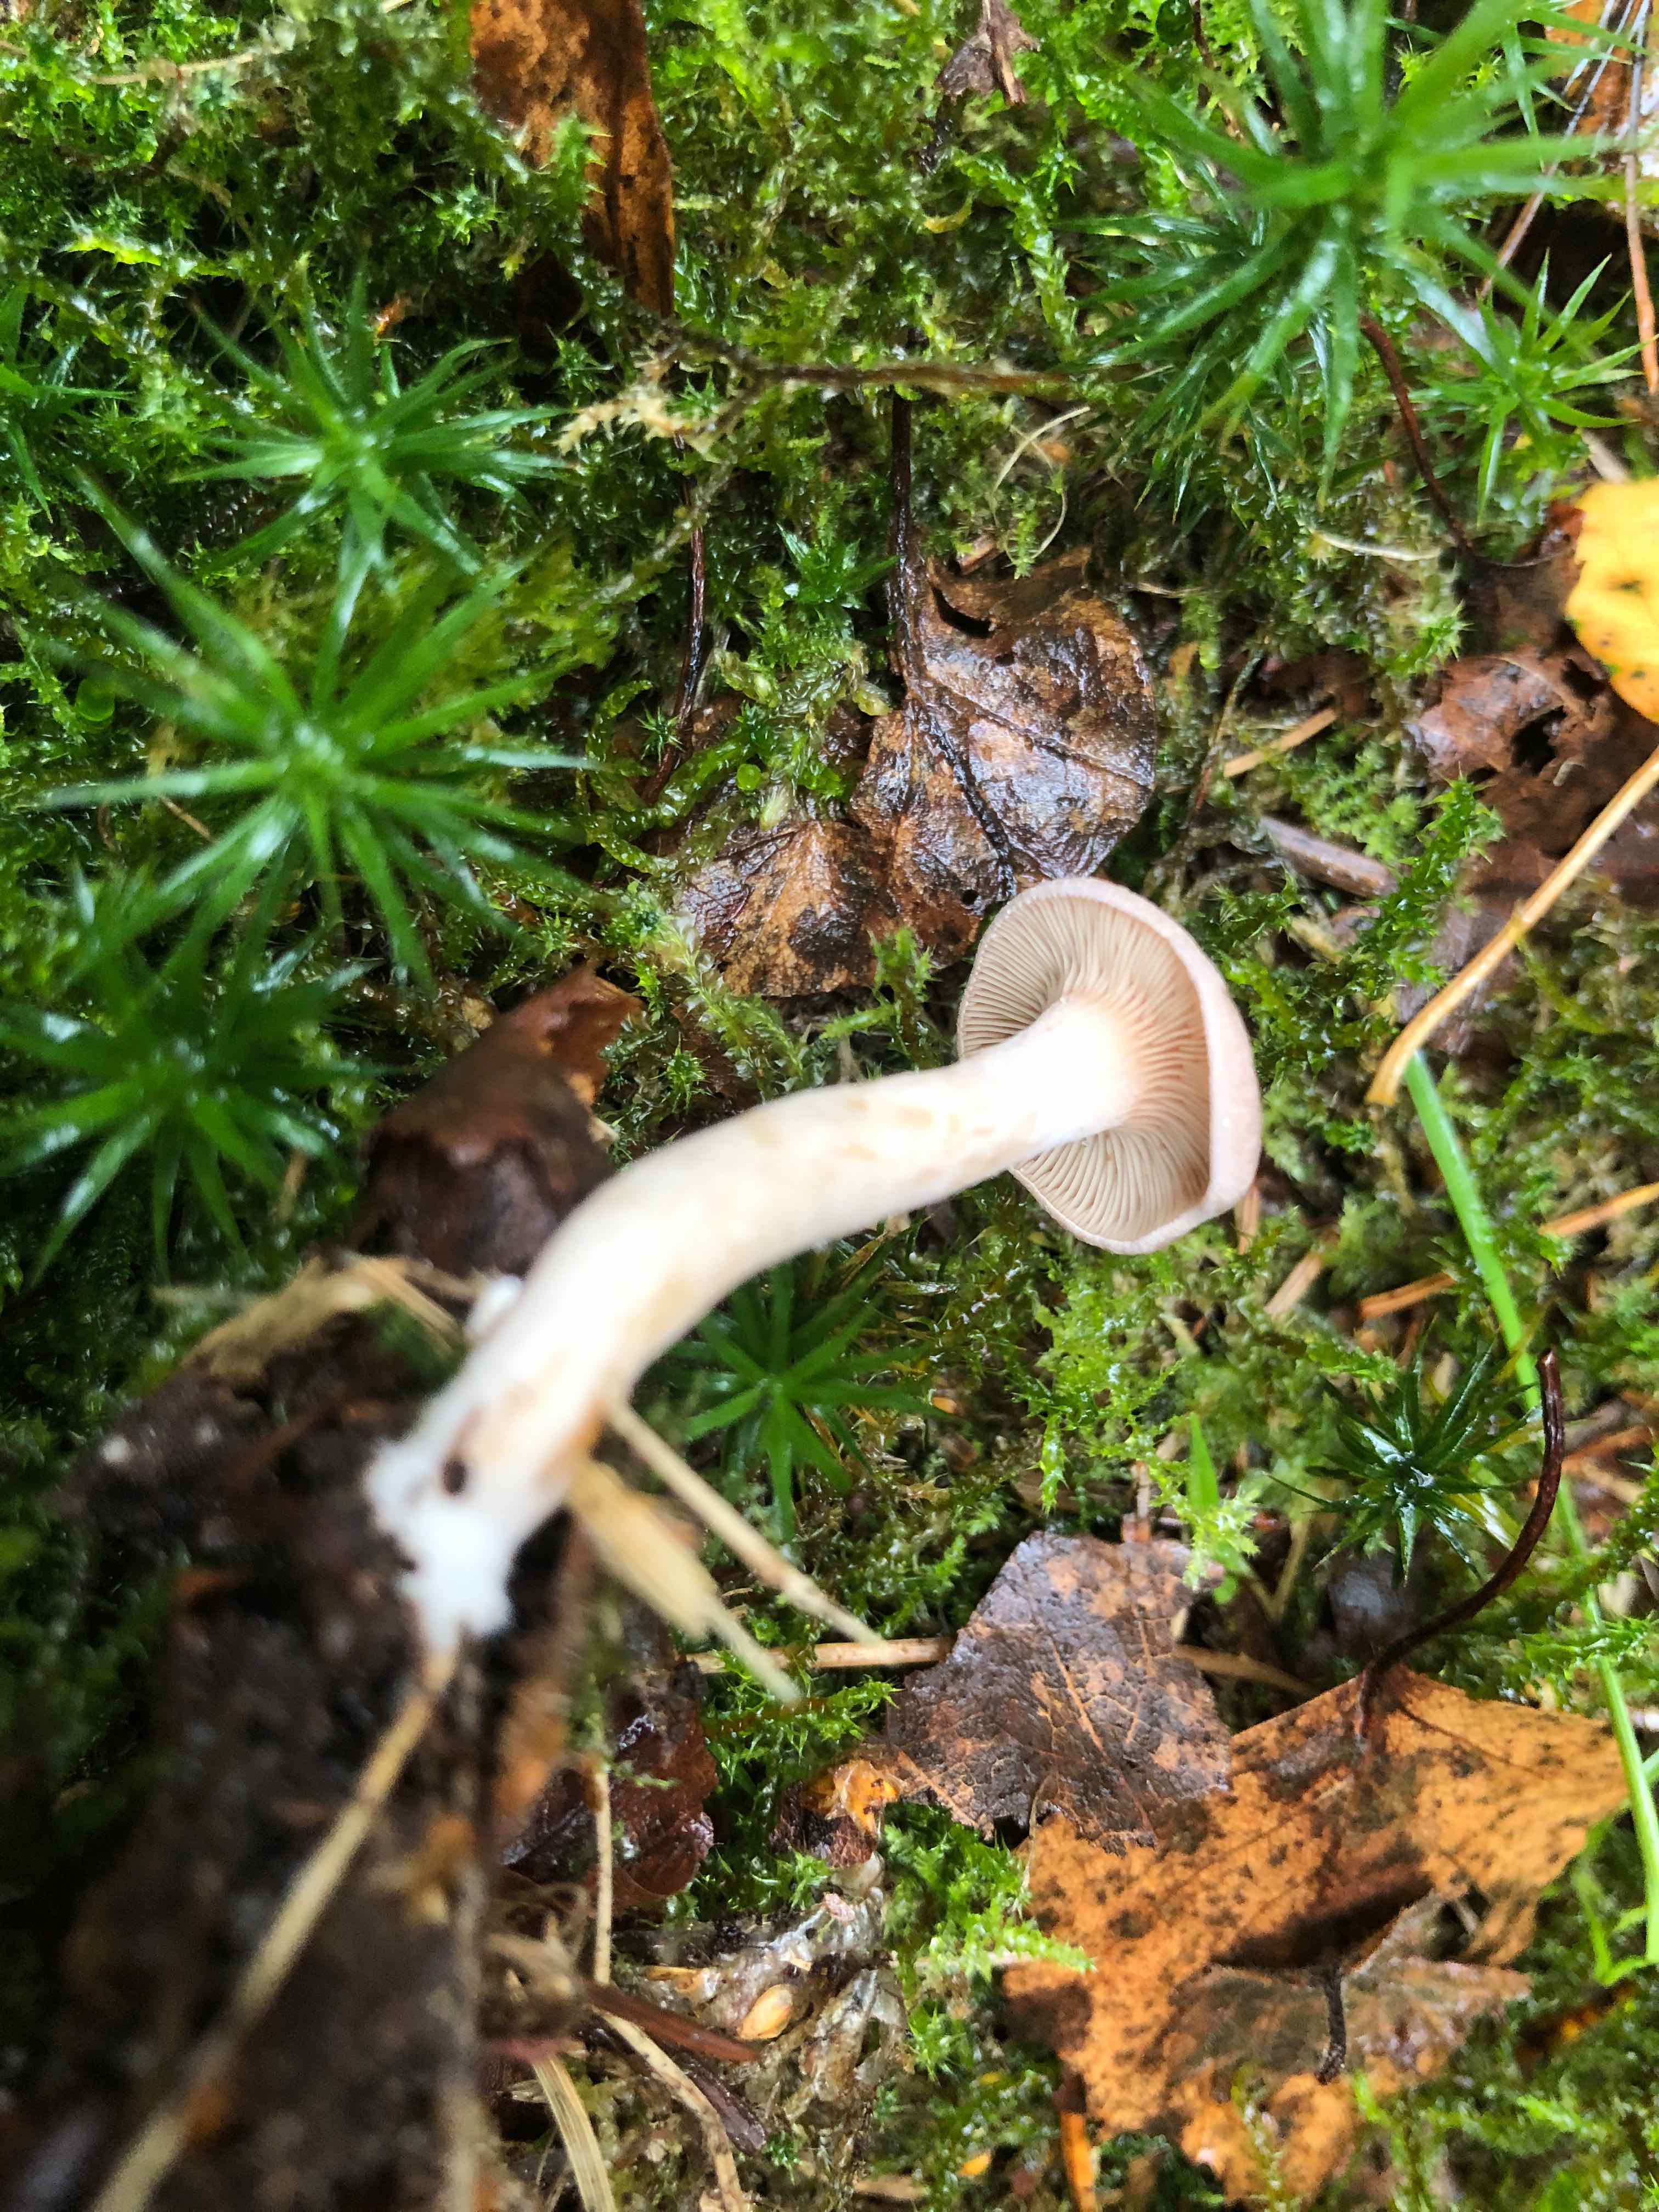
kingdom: Fungi
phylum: Basidiomycota
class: Agaricomycetes
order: Russulales
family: Russulaceae
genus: Lactarius
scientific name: Lactarius glyciosmus
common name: kokos-mælkehat
